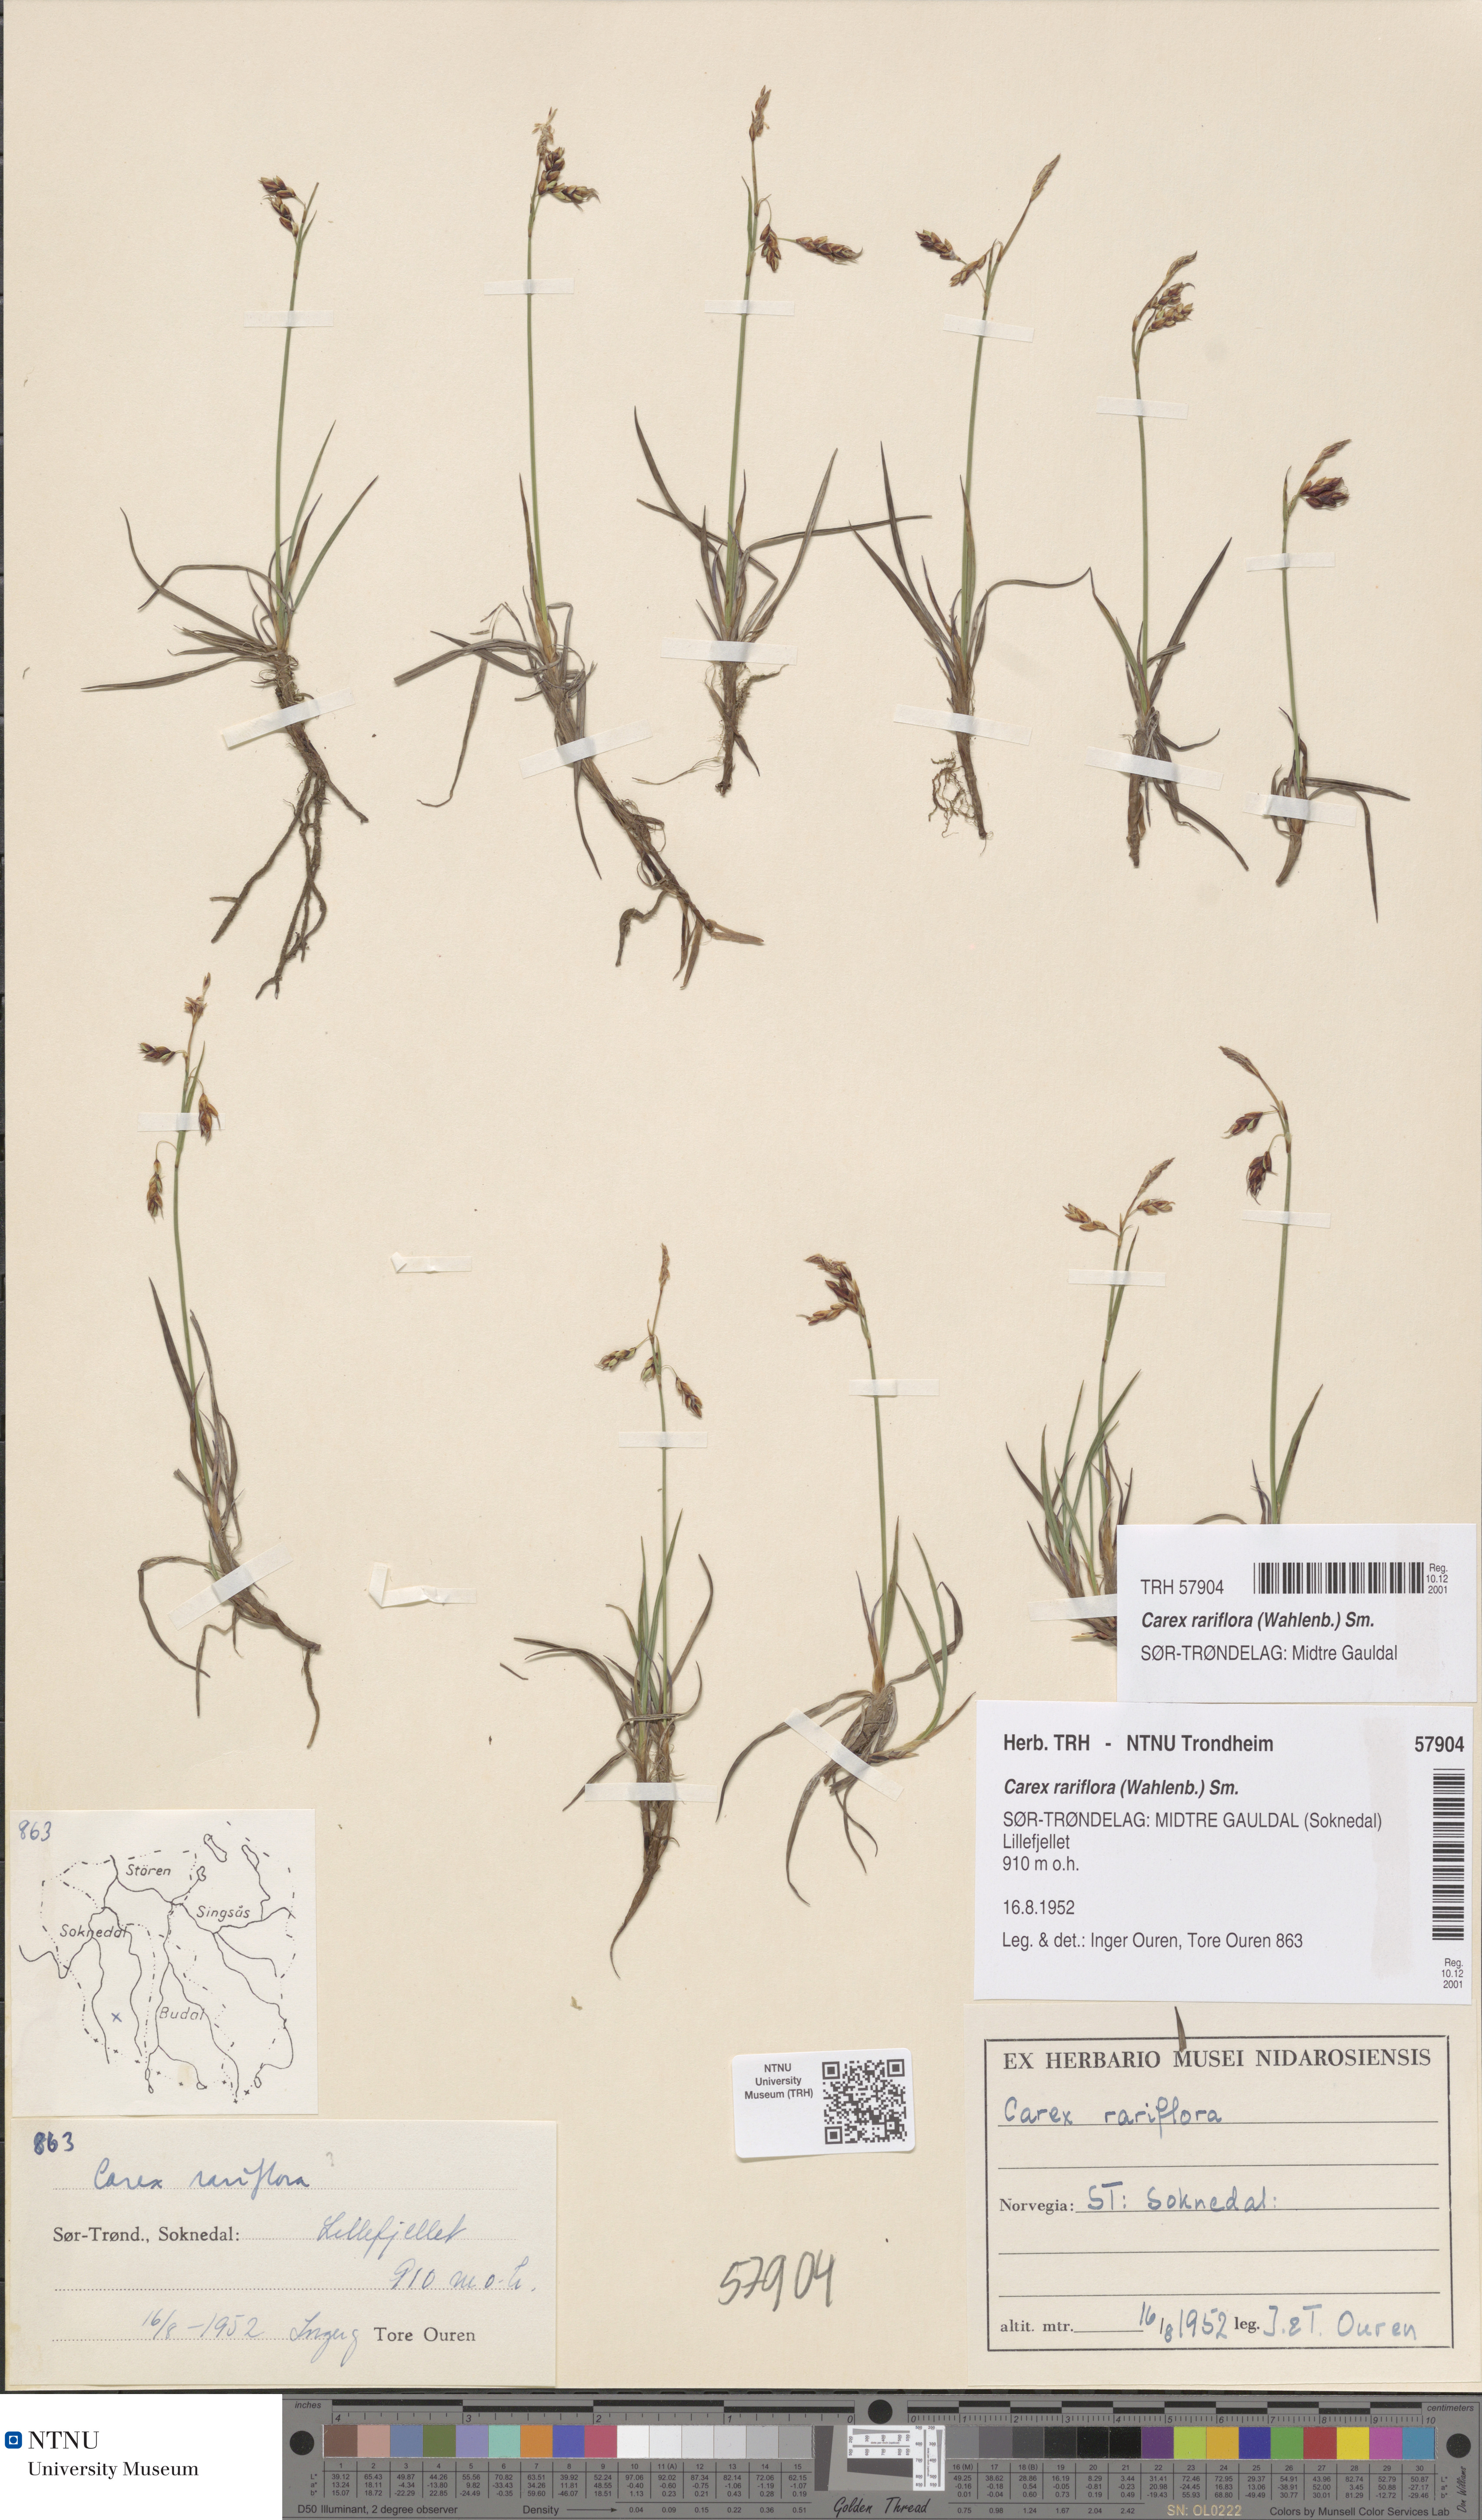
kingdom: Plantae
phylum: Tracheophyta
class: Liliopsida
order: Poales
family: Cyperaceae
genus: Carex
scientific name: Carex rariflora
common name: Loose-flowered alpine sedge
